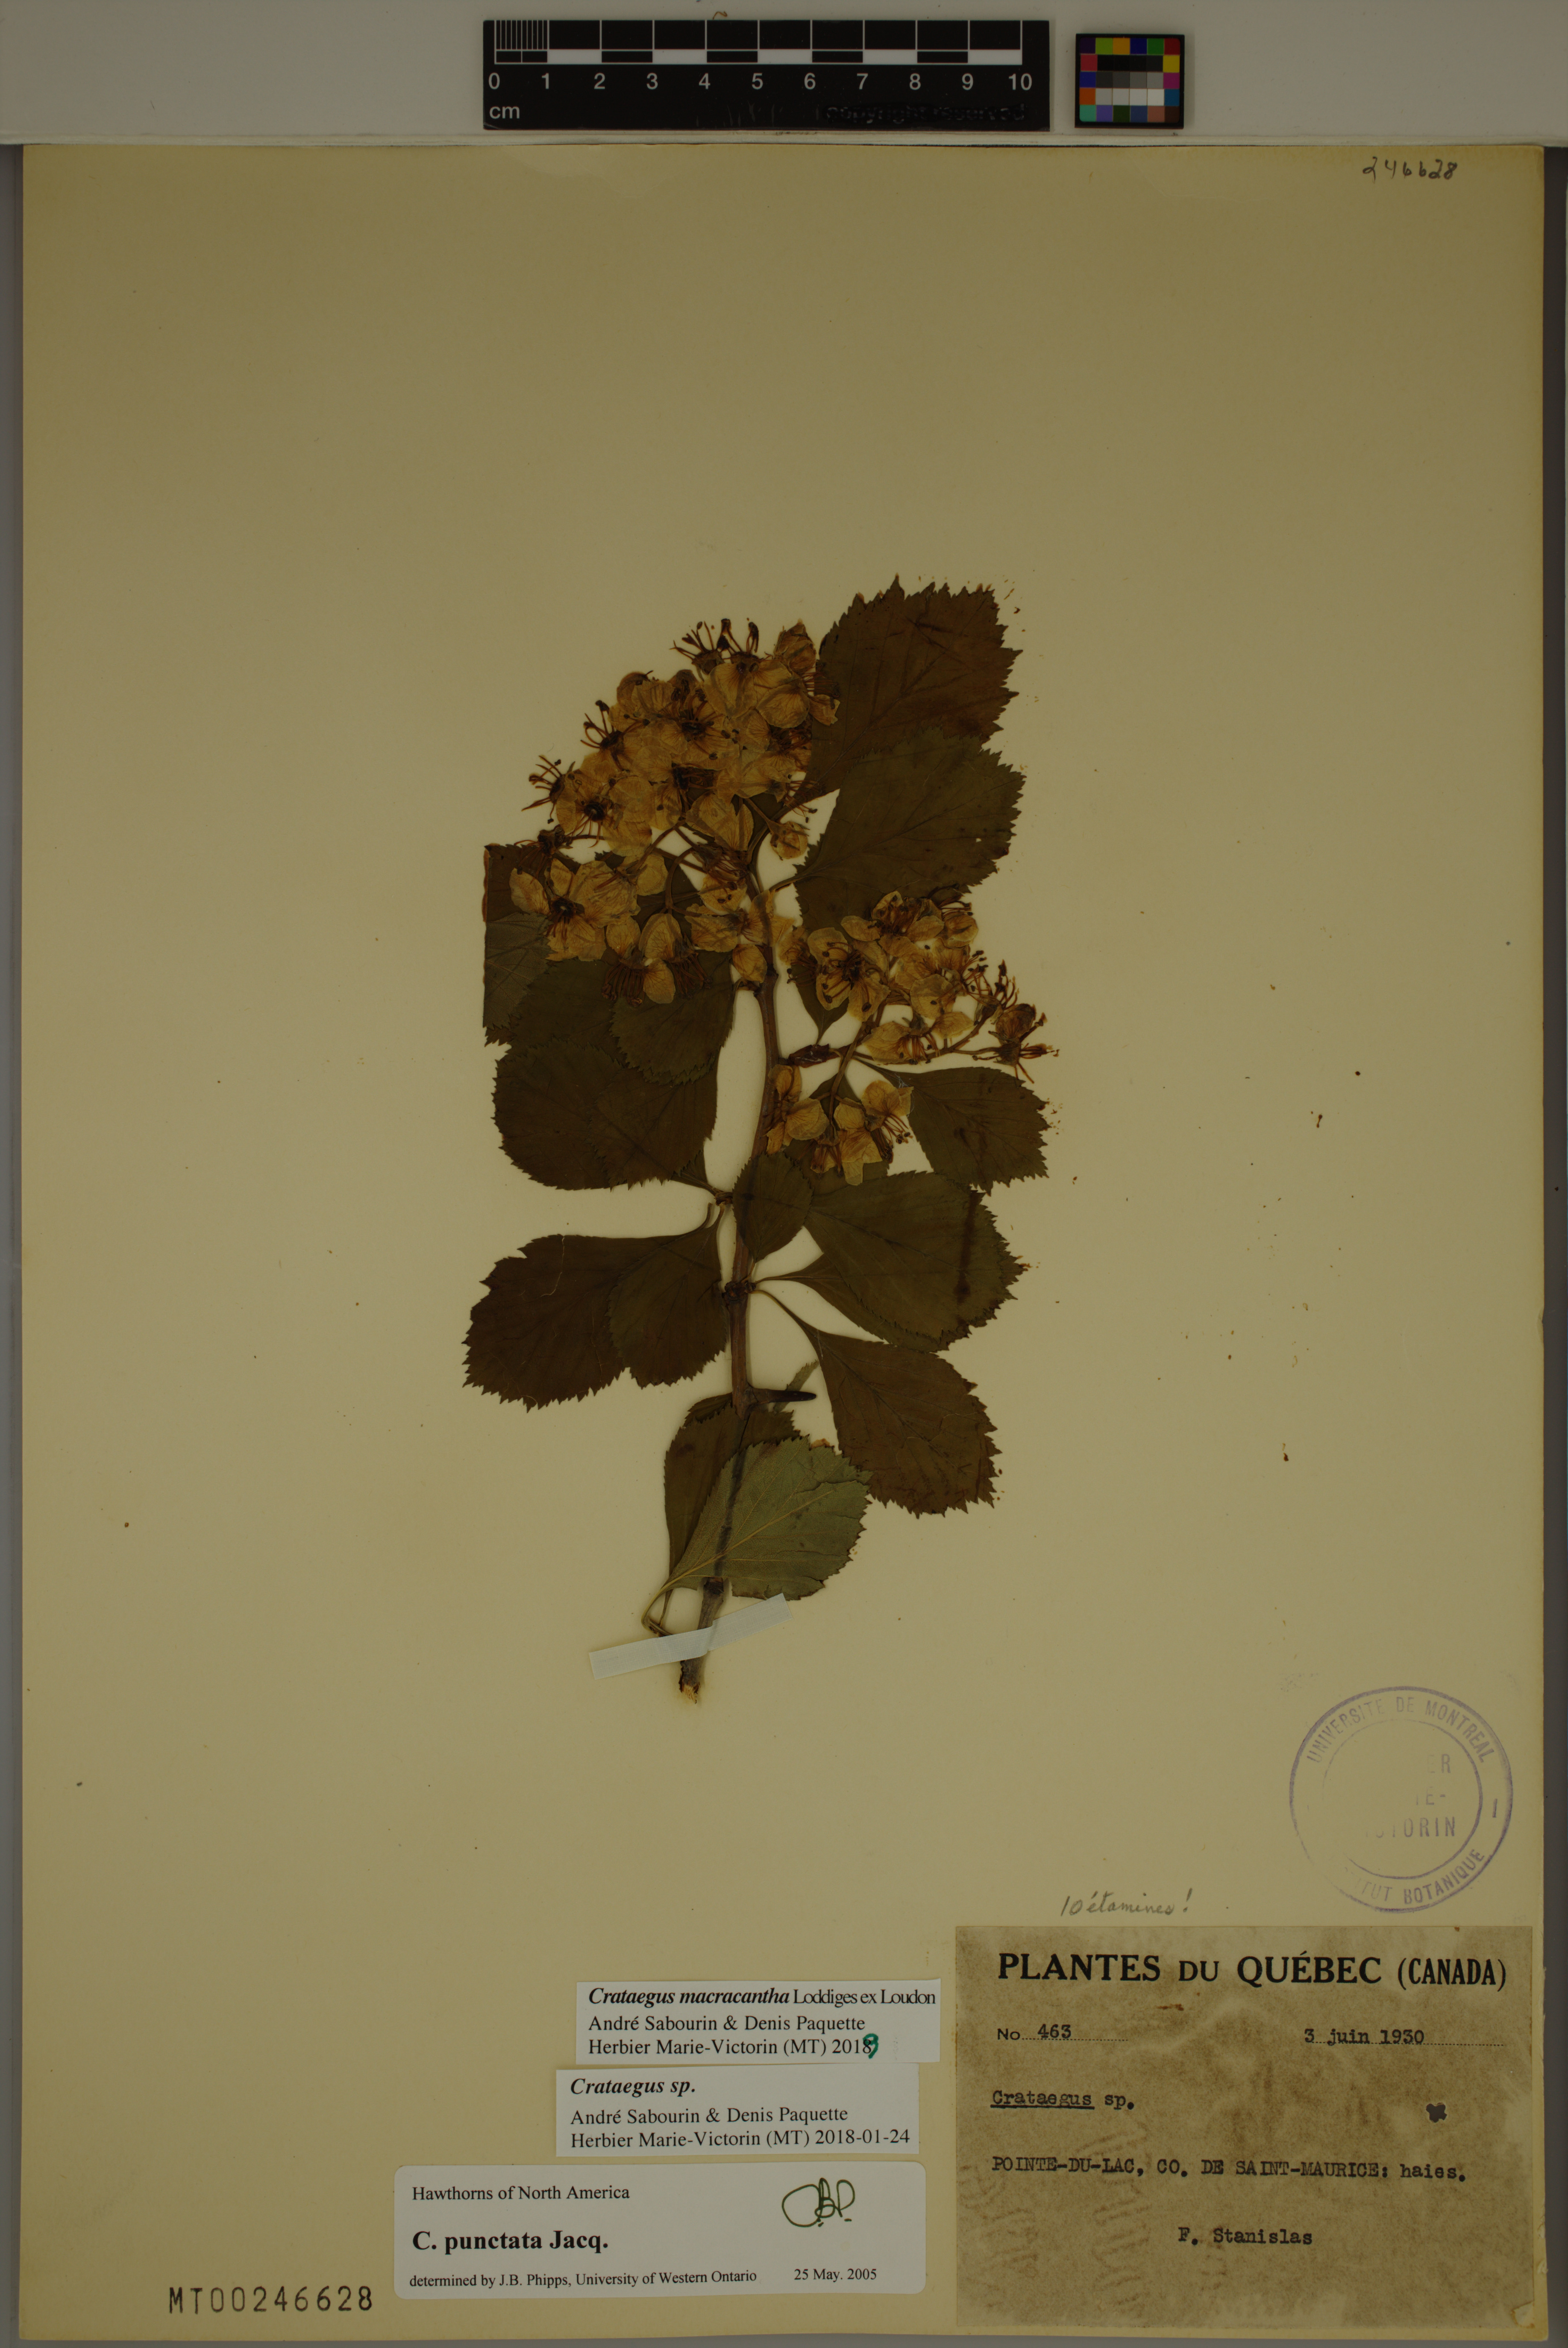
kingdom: Plantae
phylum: Tracheophyta
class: Magnoliopsida
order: Rosales
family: Rosaceae
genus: Crataegus
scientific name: Crataegus macracantha
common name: Large-thorn hawthorn
